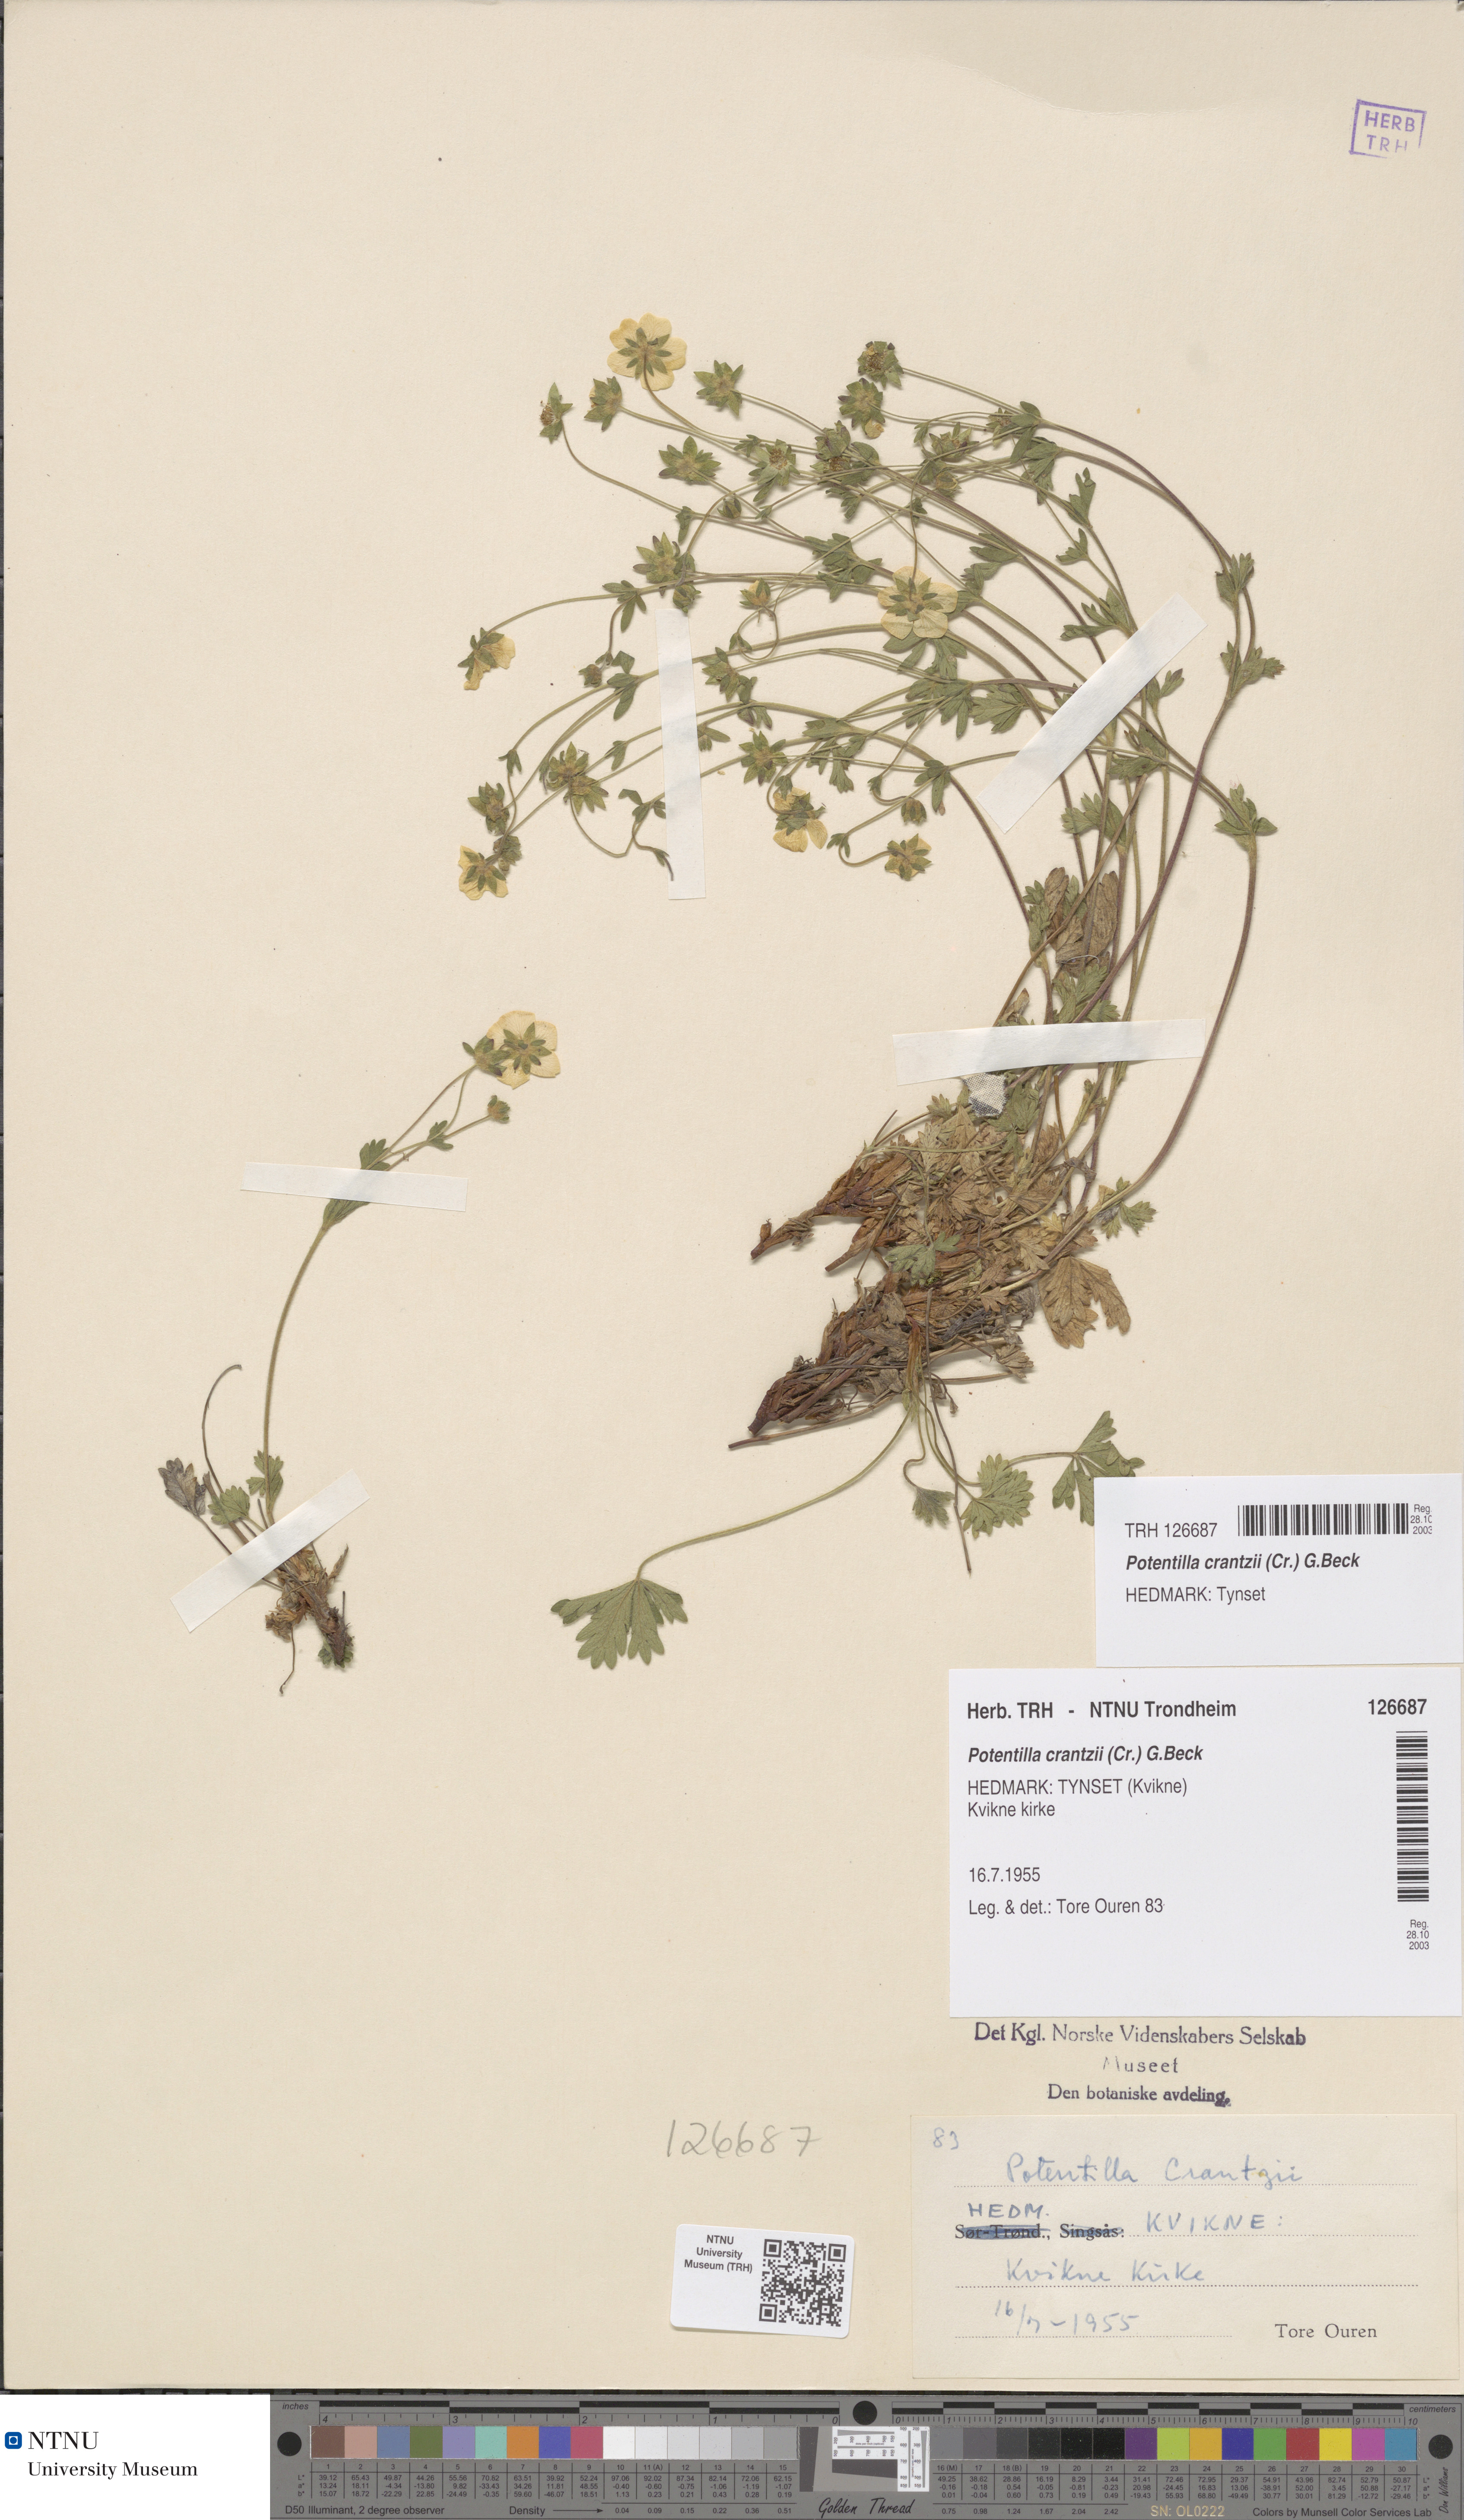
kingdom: Plantae
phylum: Tracheophyta
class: Magnoliopsida
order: Rosales
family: Rosaceae
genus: Potentilla
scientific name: Potentilla crantzii
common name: Alpine cinquefoil
